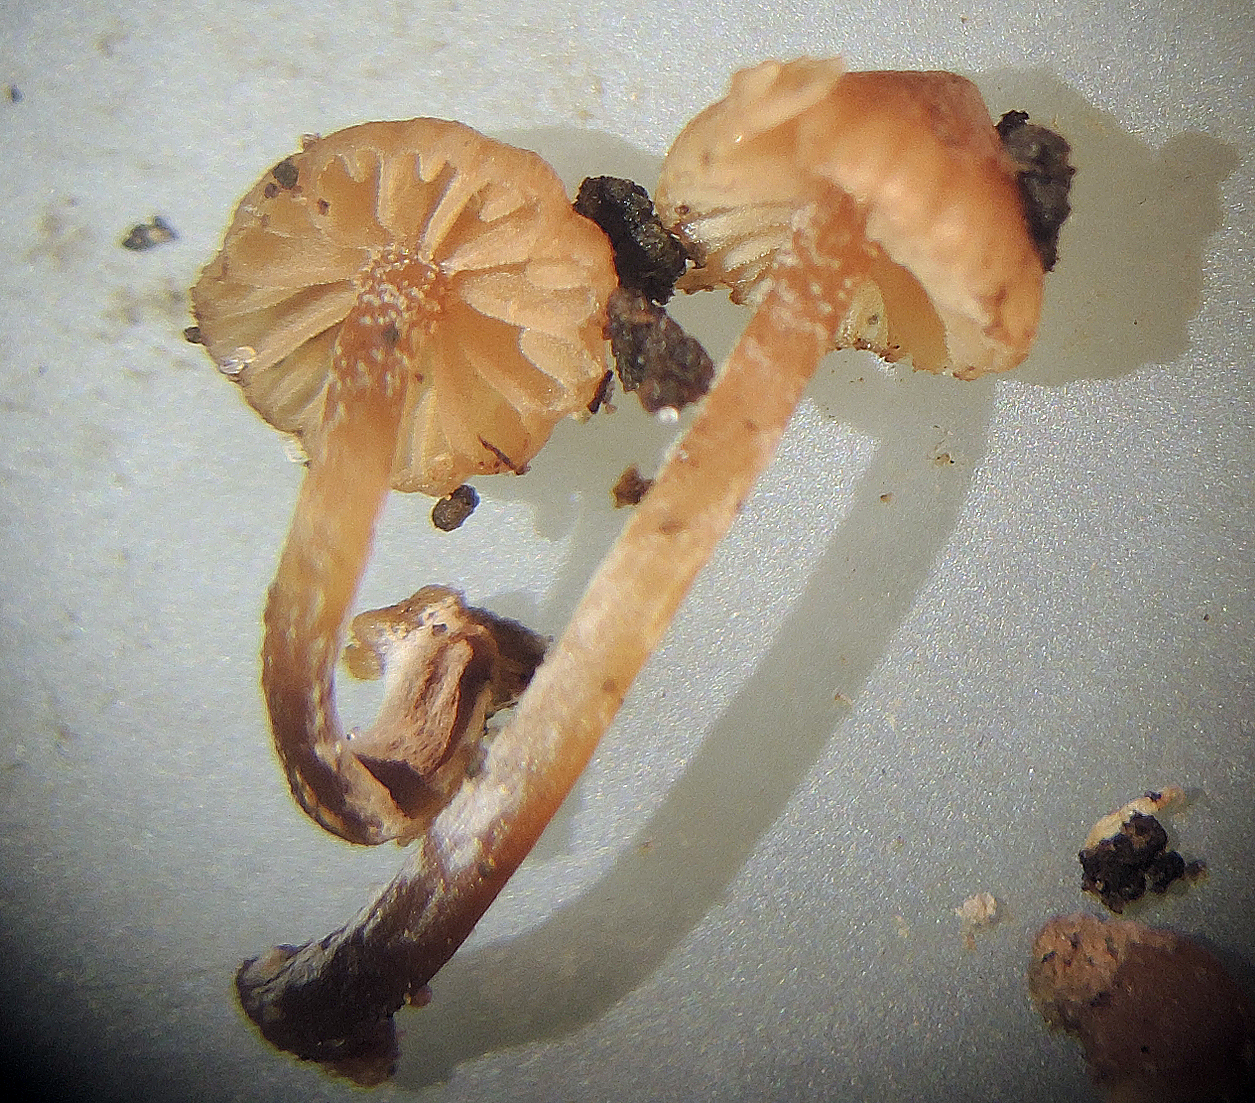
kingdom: Fungi
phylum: Basidiomycota
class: Agaricomycetes
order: Agaricales
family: Hymenogastraceae
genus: Galerina
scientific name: Galerina nana
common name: dværg-hjelmhat
